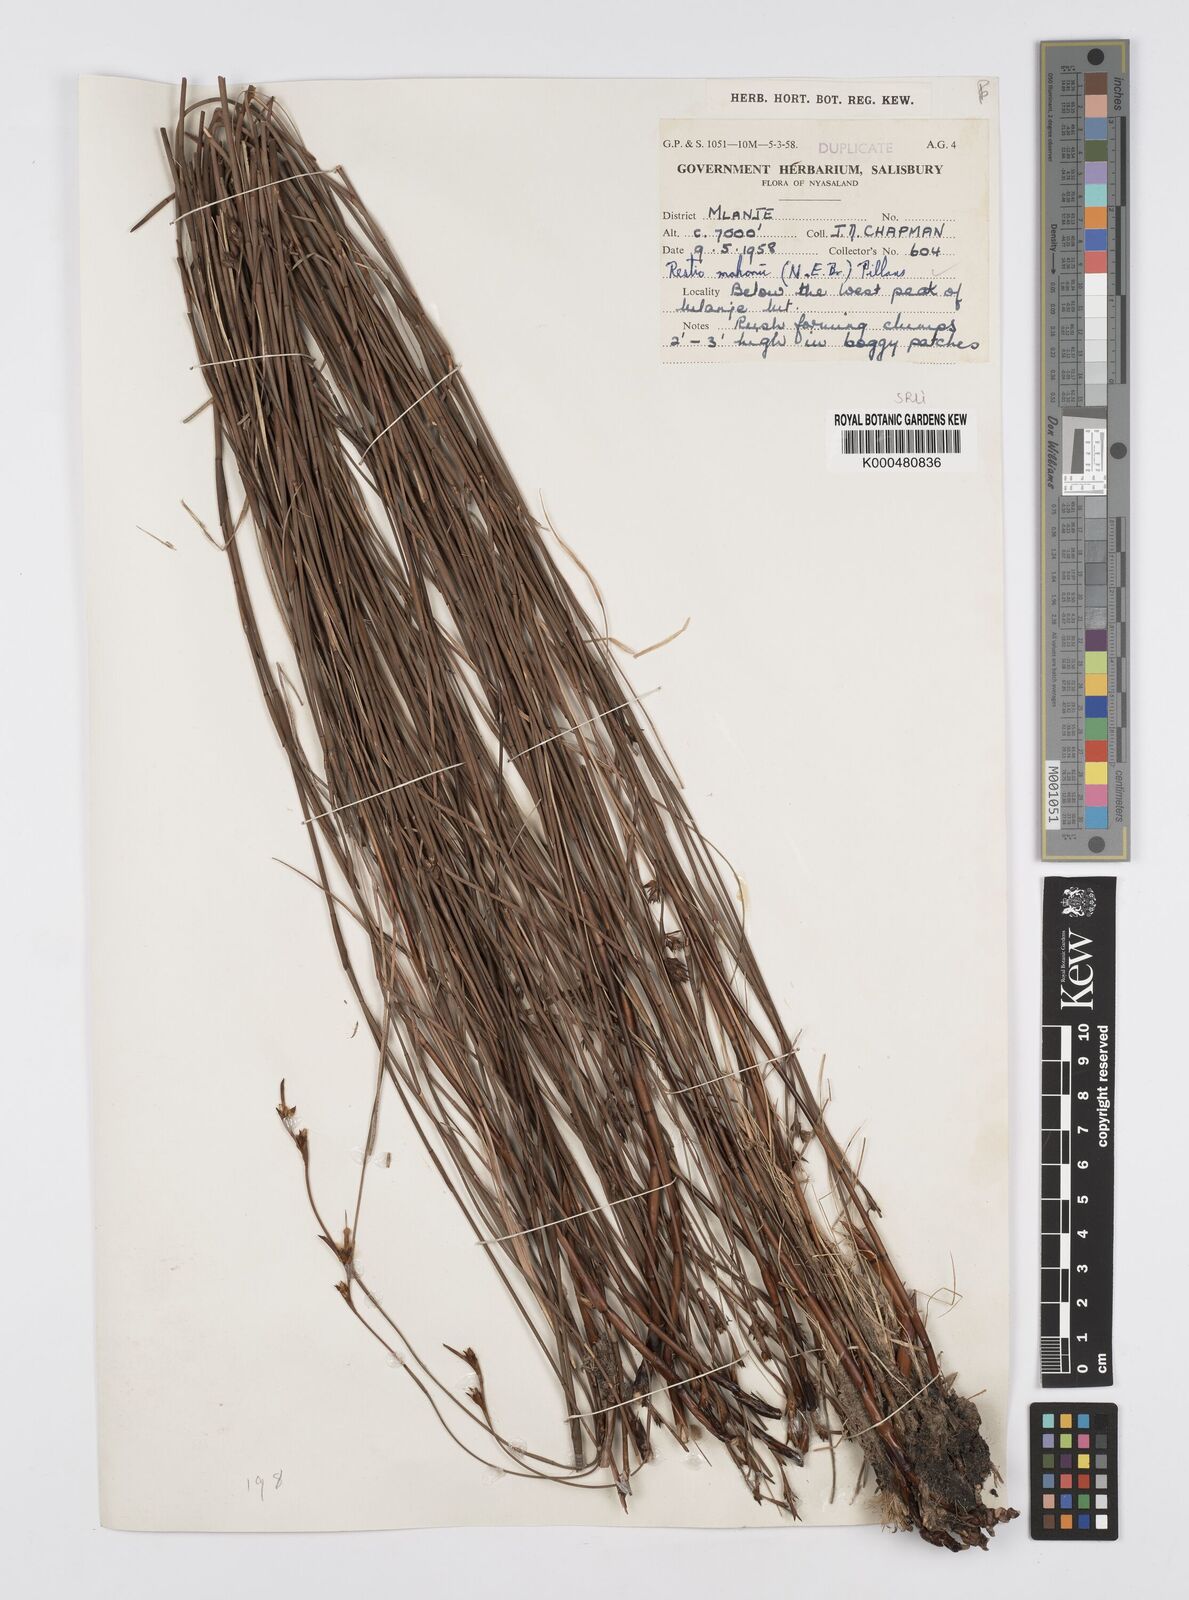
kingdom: Plantae
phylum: Tracheophyta
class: Liliopsida
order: Poales
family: Restionaceae
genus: Platycaulos
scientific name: Platycaulos mahonii
